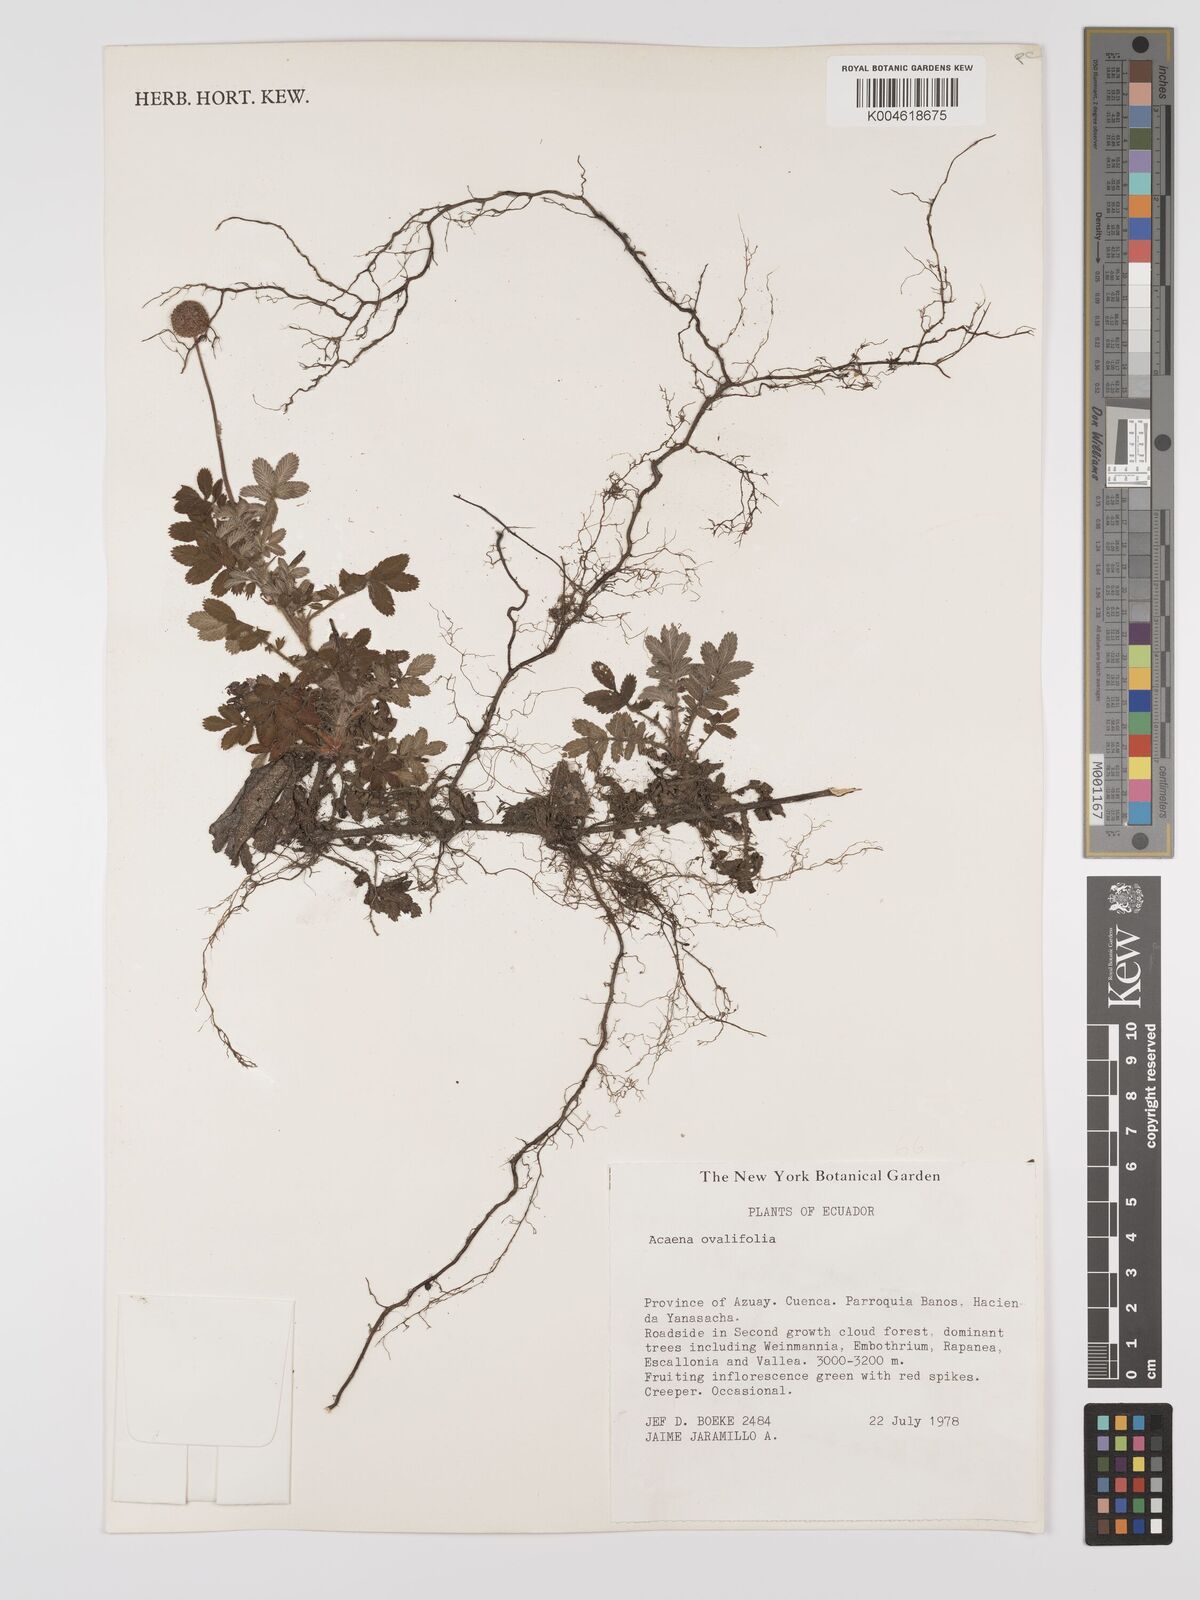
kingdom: Plantae
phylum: Tracheophyta
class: Magnoliopsida
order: Rosales
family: Rosaceae
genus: Acaena
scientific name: Acaena ovalifolia
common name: Two-spined acaena
